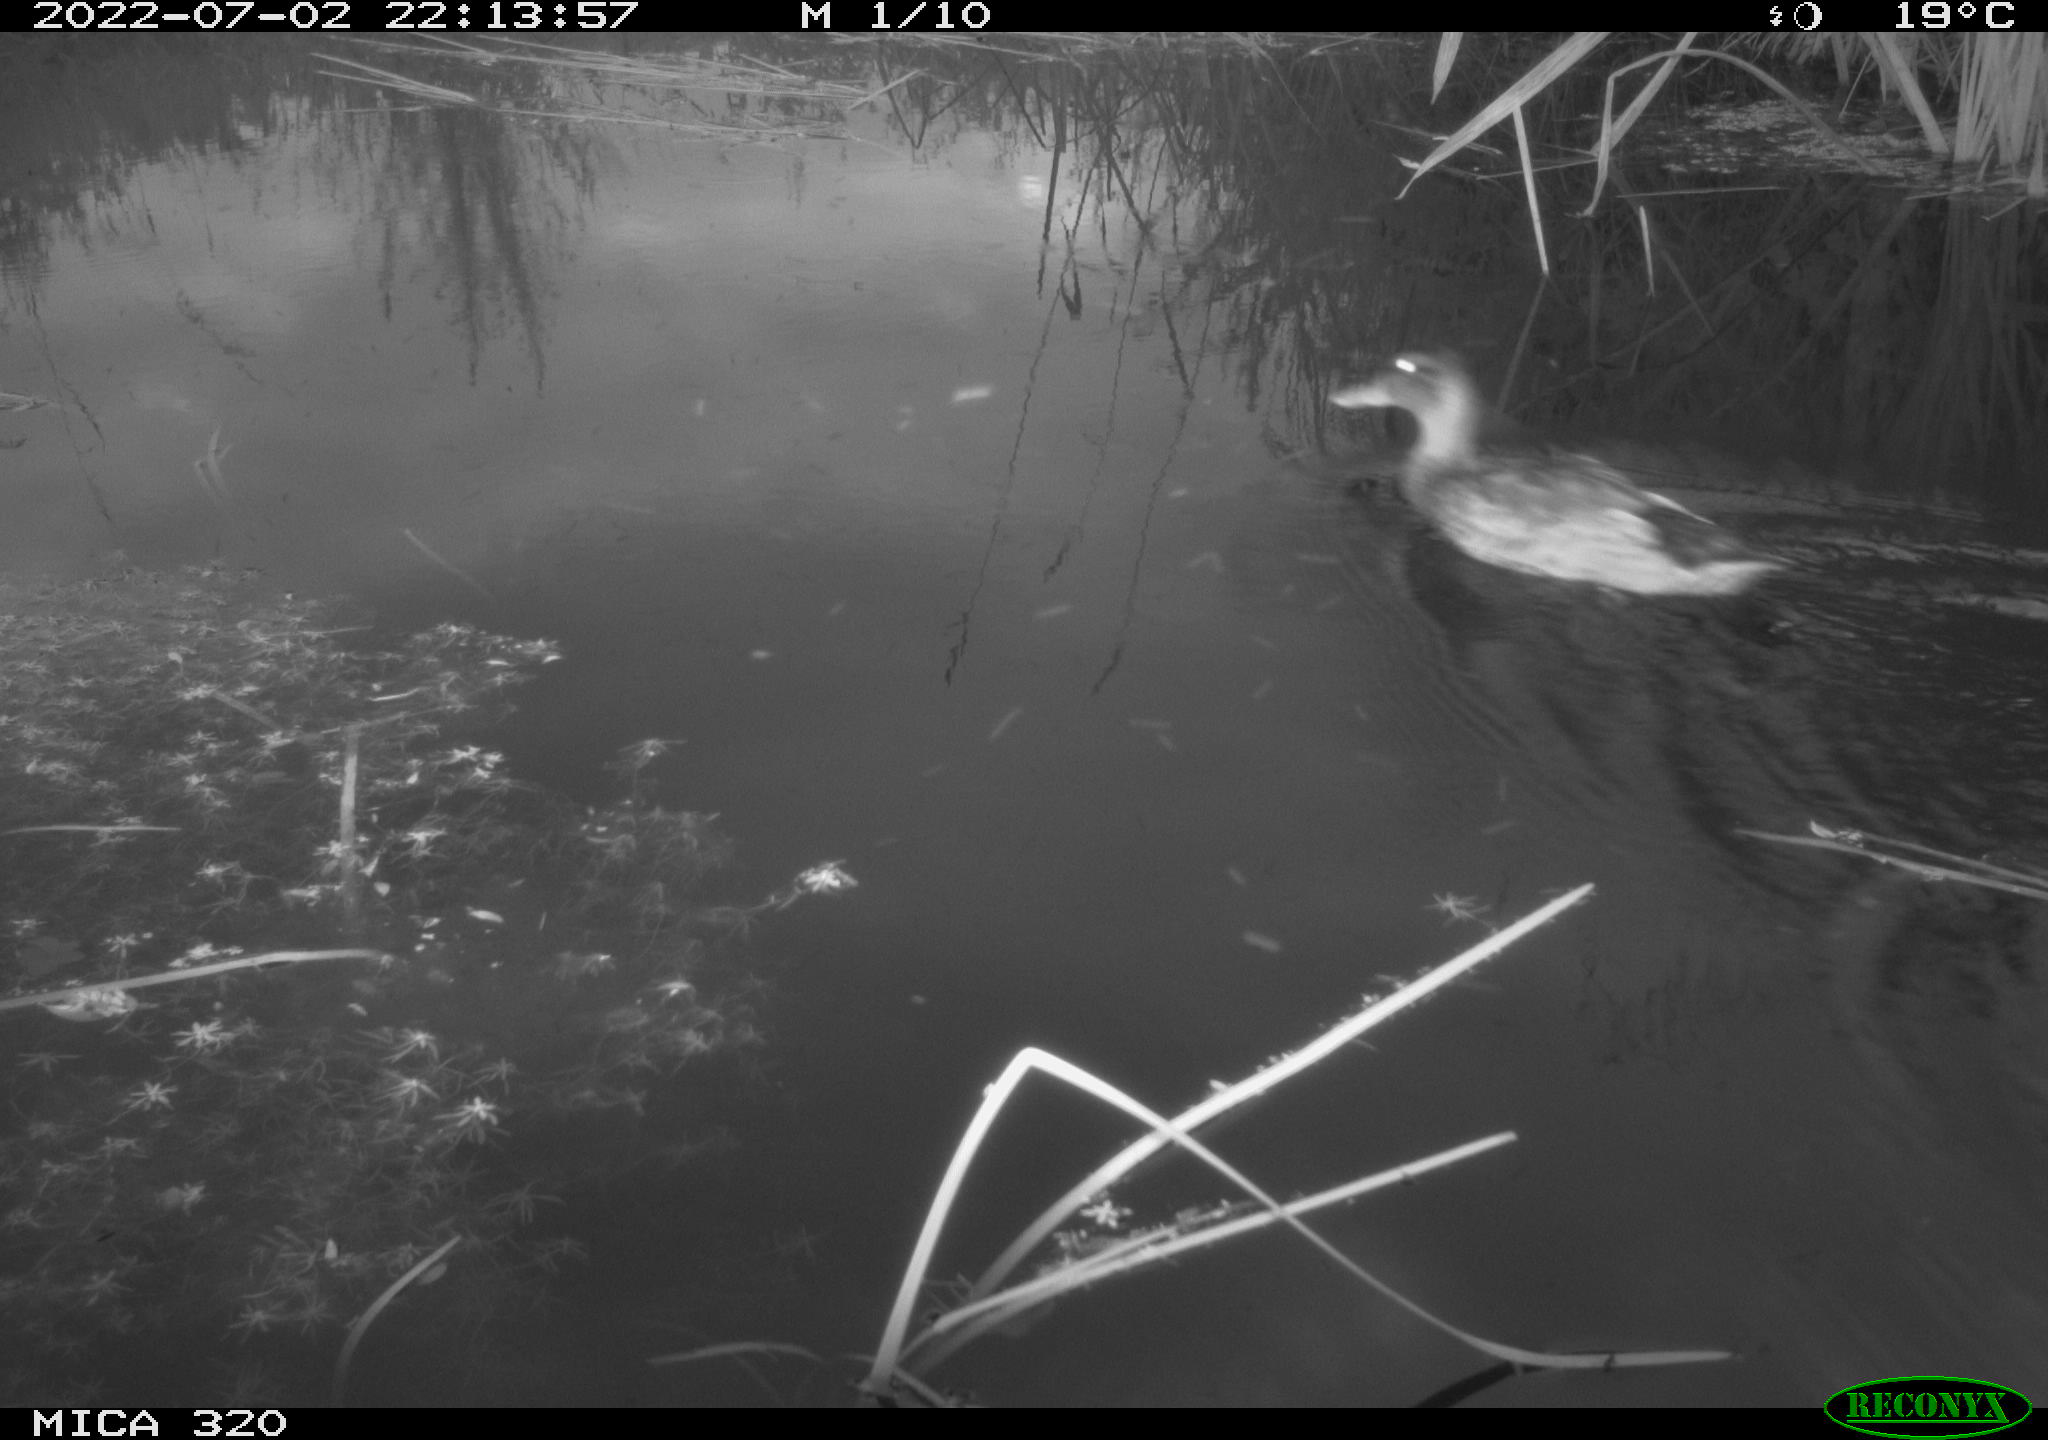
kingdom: Animalia
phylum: Chordata
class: Aves
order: Anseriformes
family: Anatidae
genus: Anas
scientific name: Anas platyrhynchos
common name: Mallard
